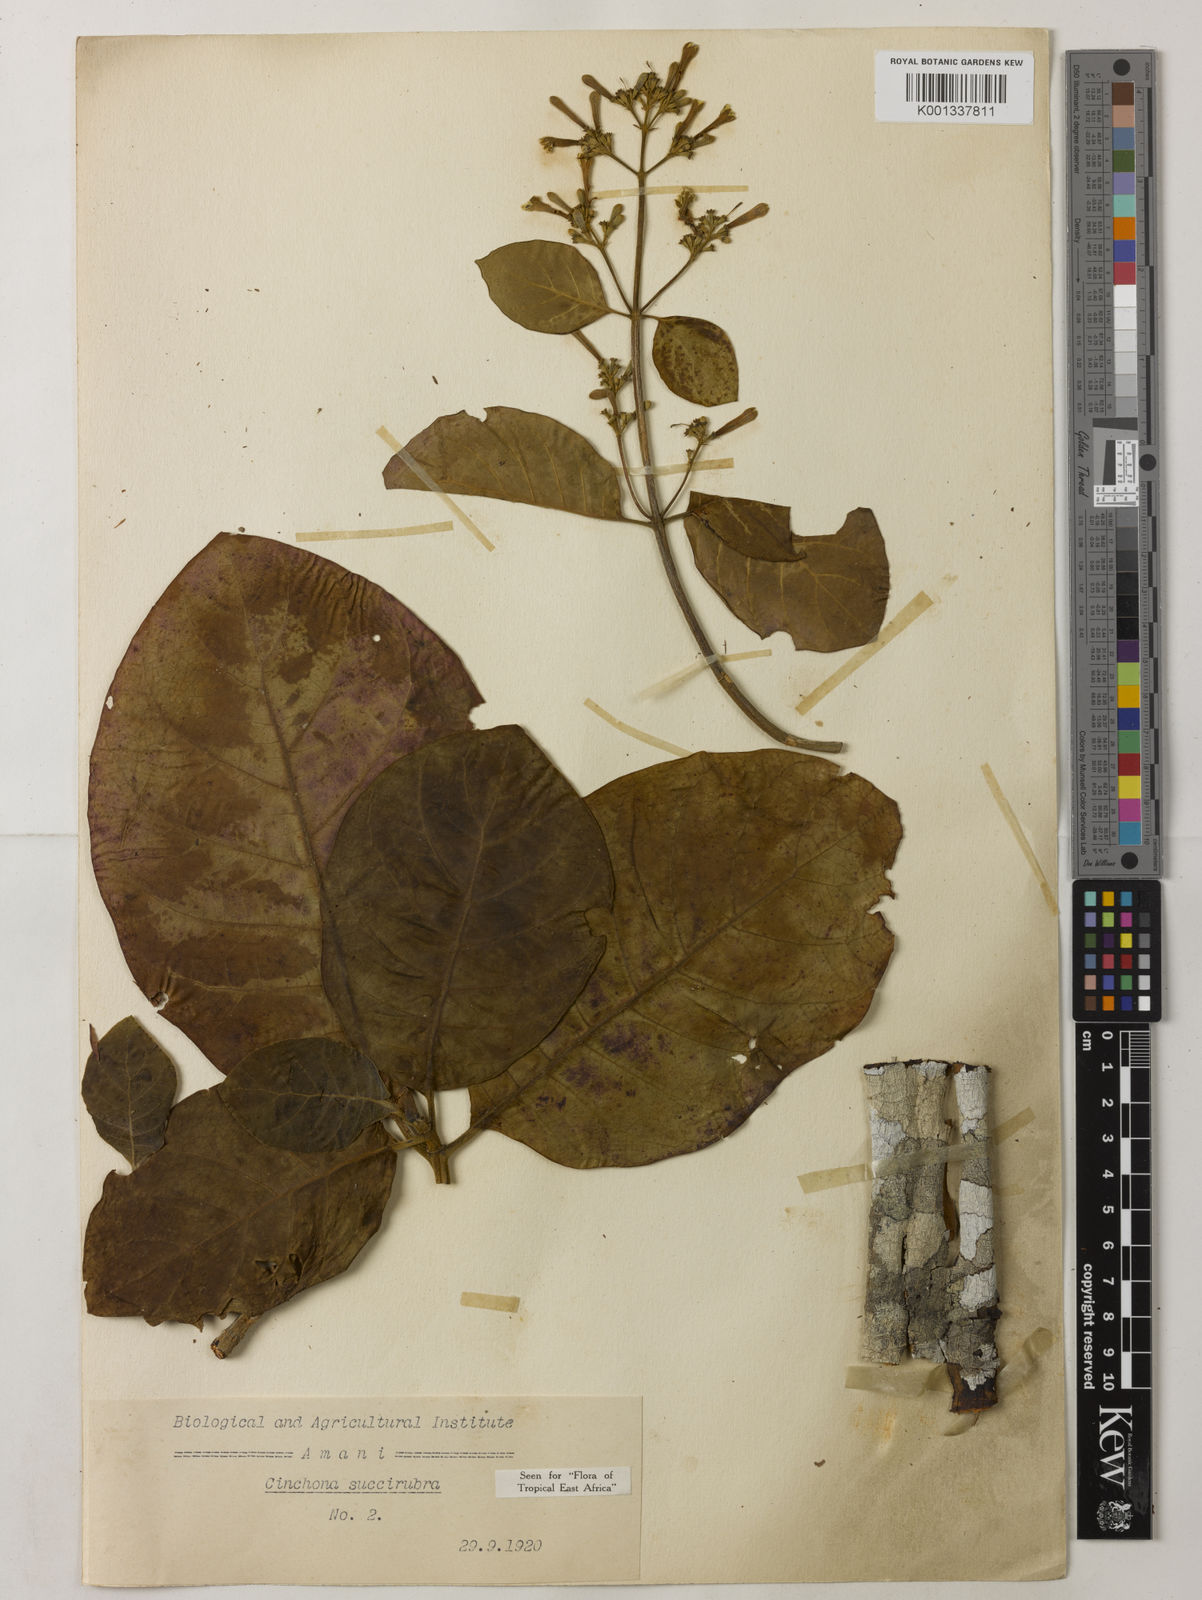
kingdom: Plantae
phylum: Tracheophyta
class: Magnoliopsida
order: Gentianales
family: Rubiaceae
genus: Cinchona
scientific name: Cinchona pubescens
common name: Quinine
